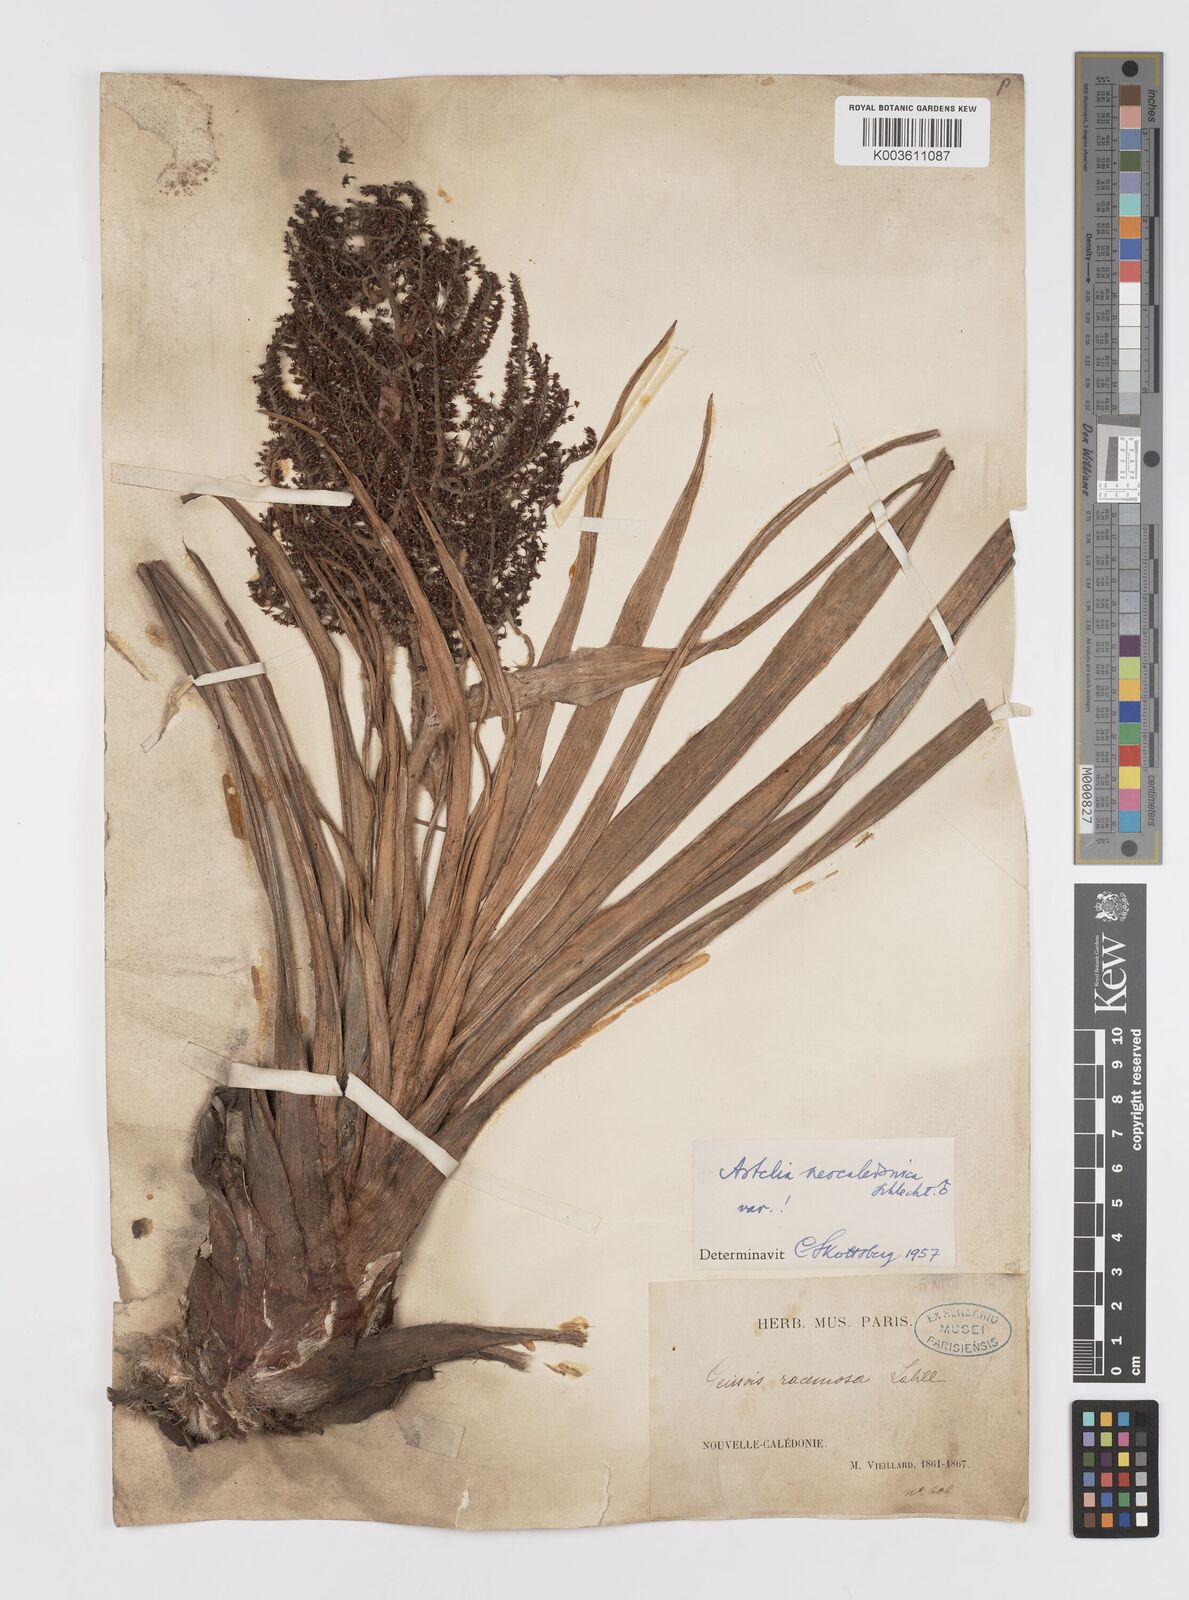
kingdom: Plantae
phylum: Tracheophyta
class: Liliopsida
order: Asparagales
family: Asteliaceae
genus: Astelia
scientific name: Astelia neocaledonica
